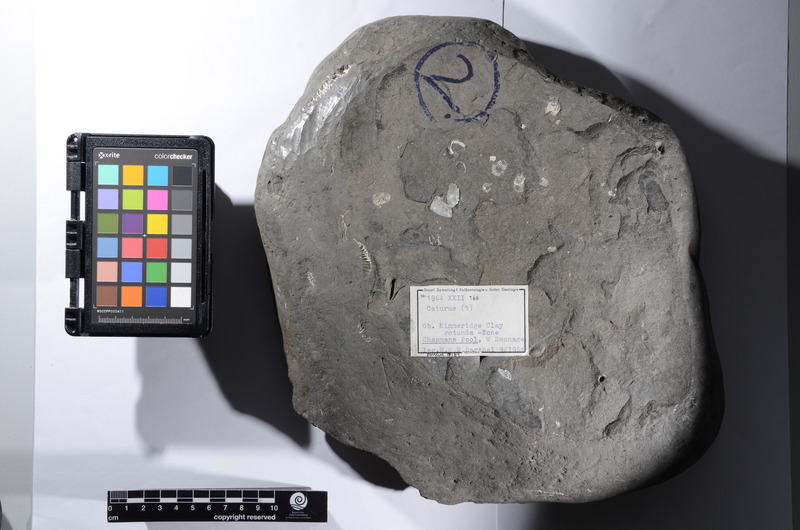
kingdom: Animalia
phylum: Chordata
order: Amiiformes
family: Caturidae
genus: Caturus
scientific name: Caturus
